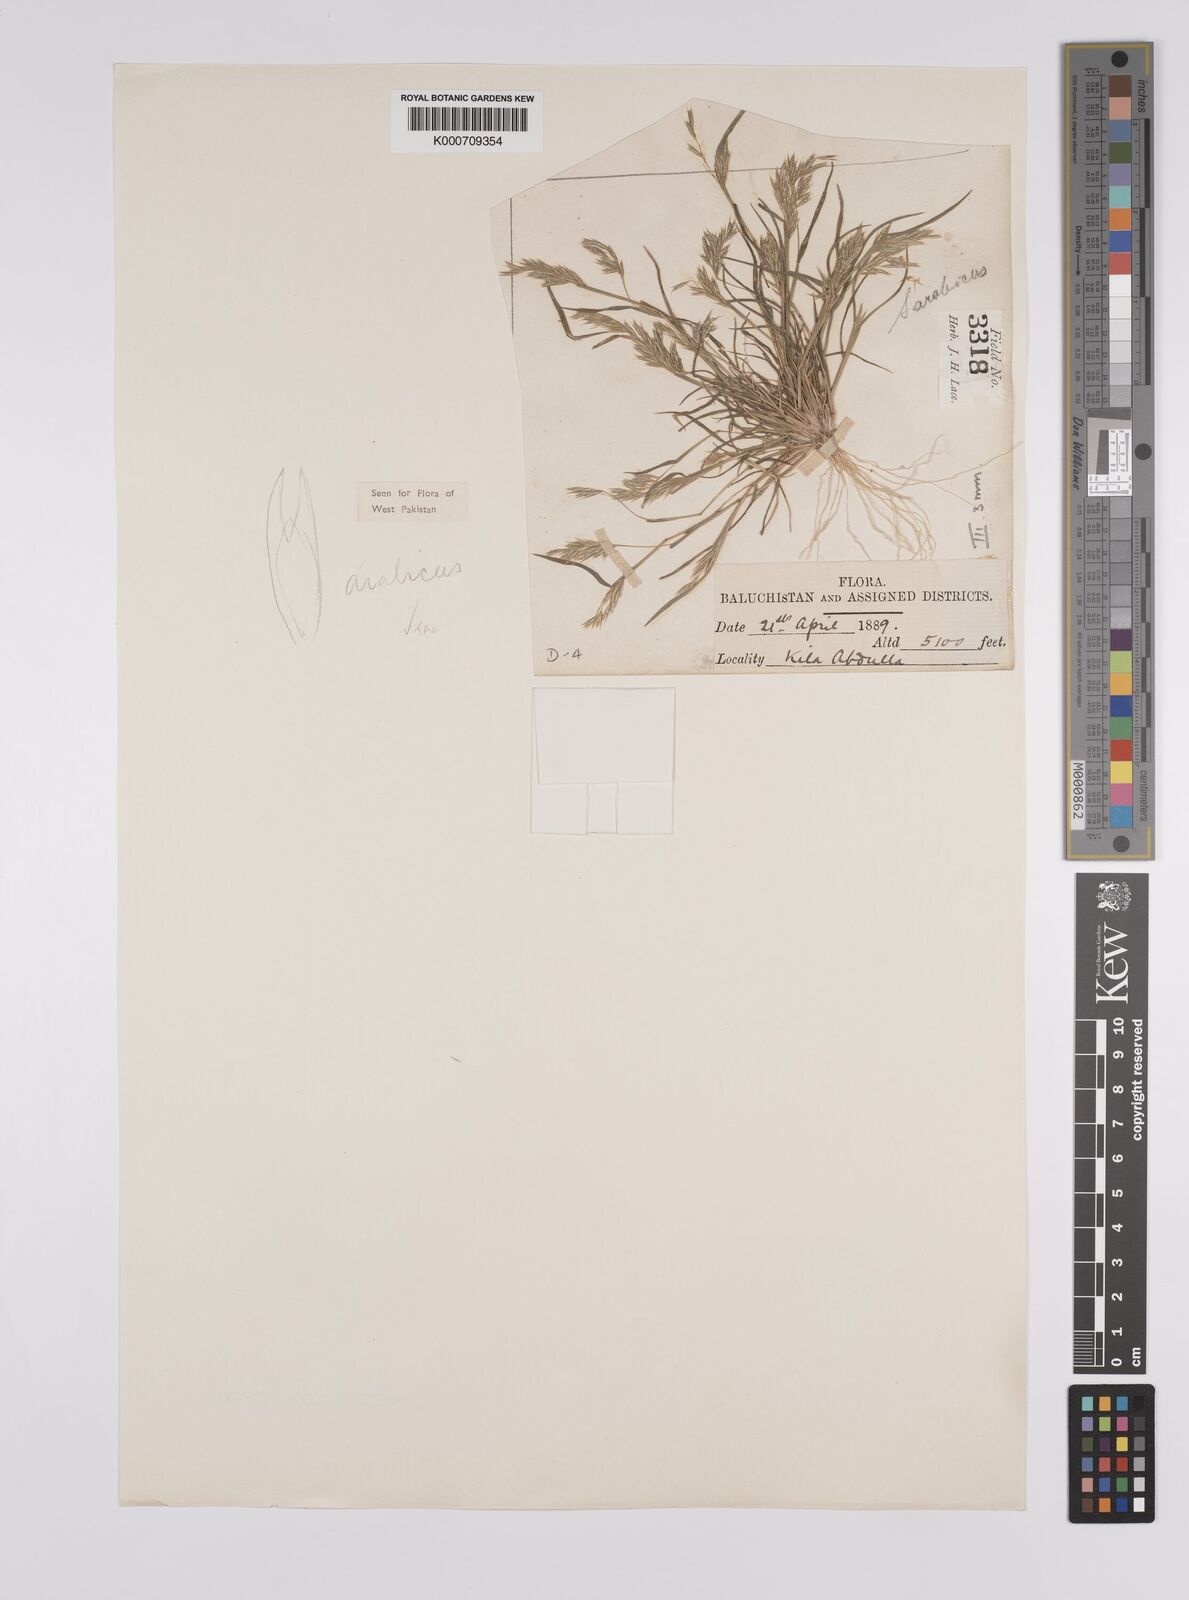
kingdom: Plantae
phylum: Tracheophyta
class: Liliopsida
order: Poales
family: Poaceae
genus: Schismus
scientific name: Schismus arabicus
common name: Arabian schismus
